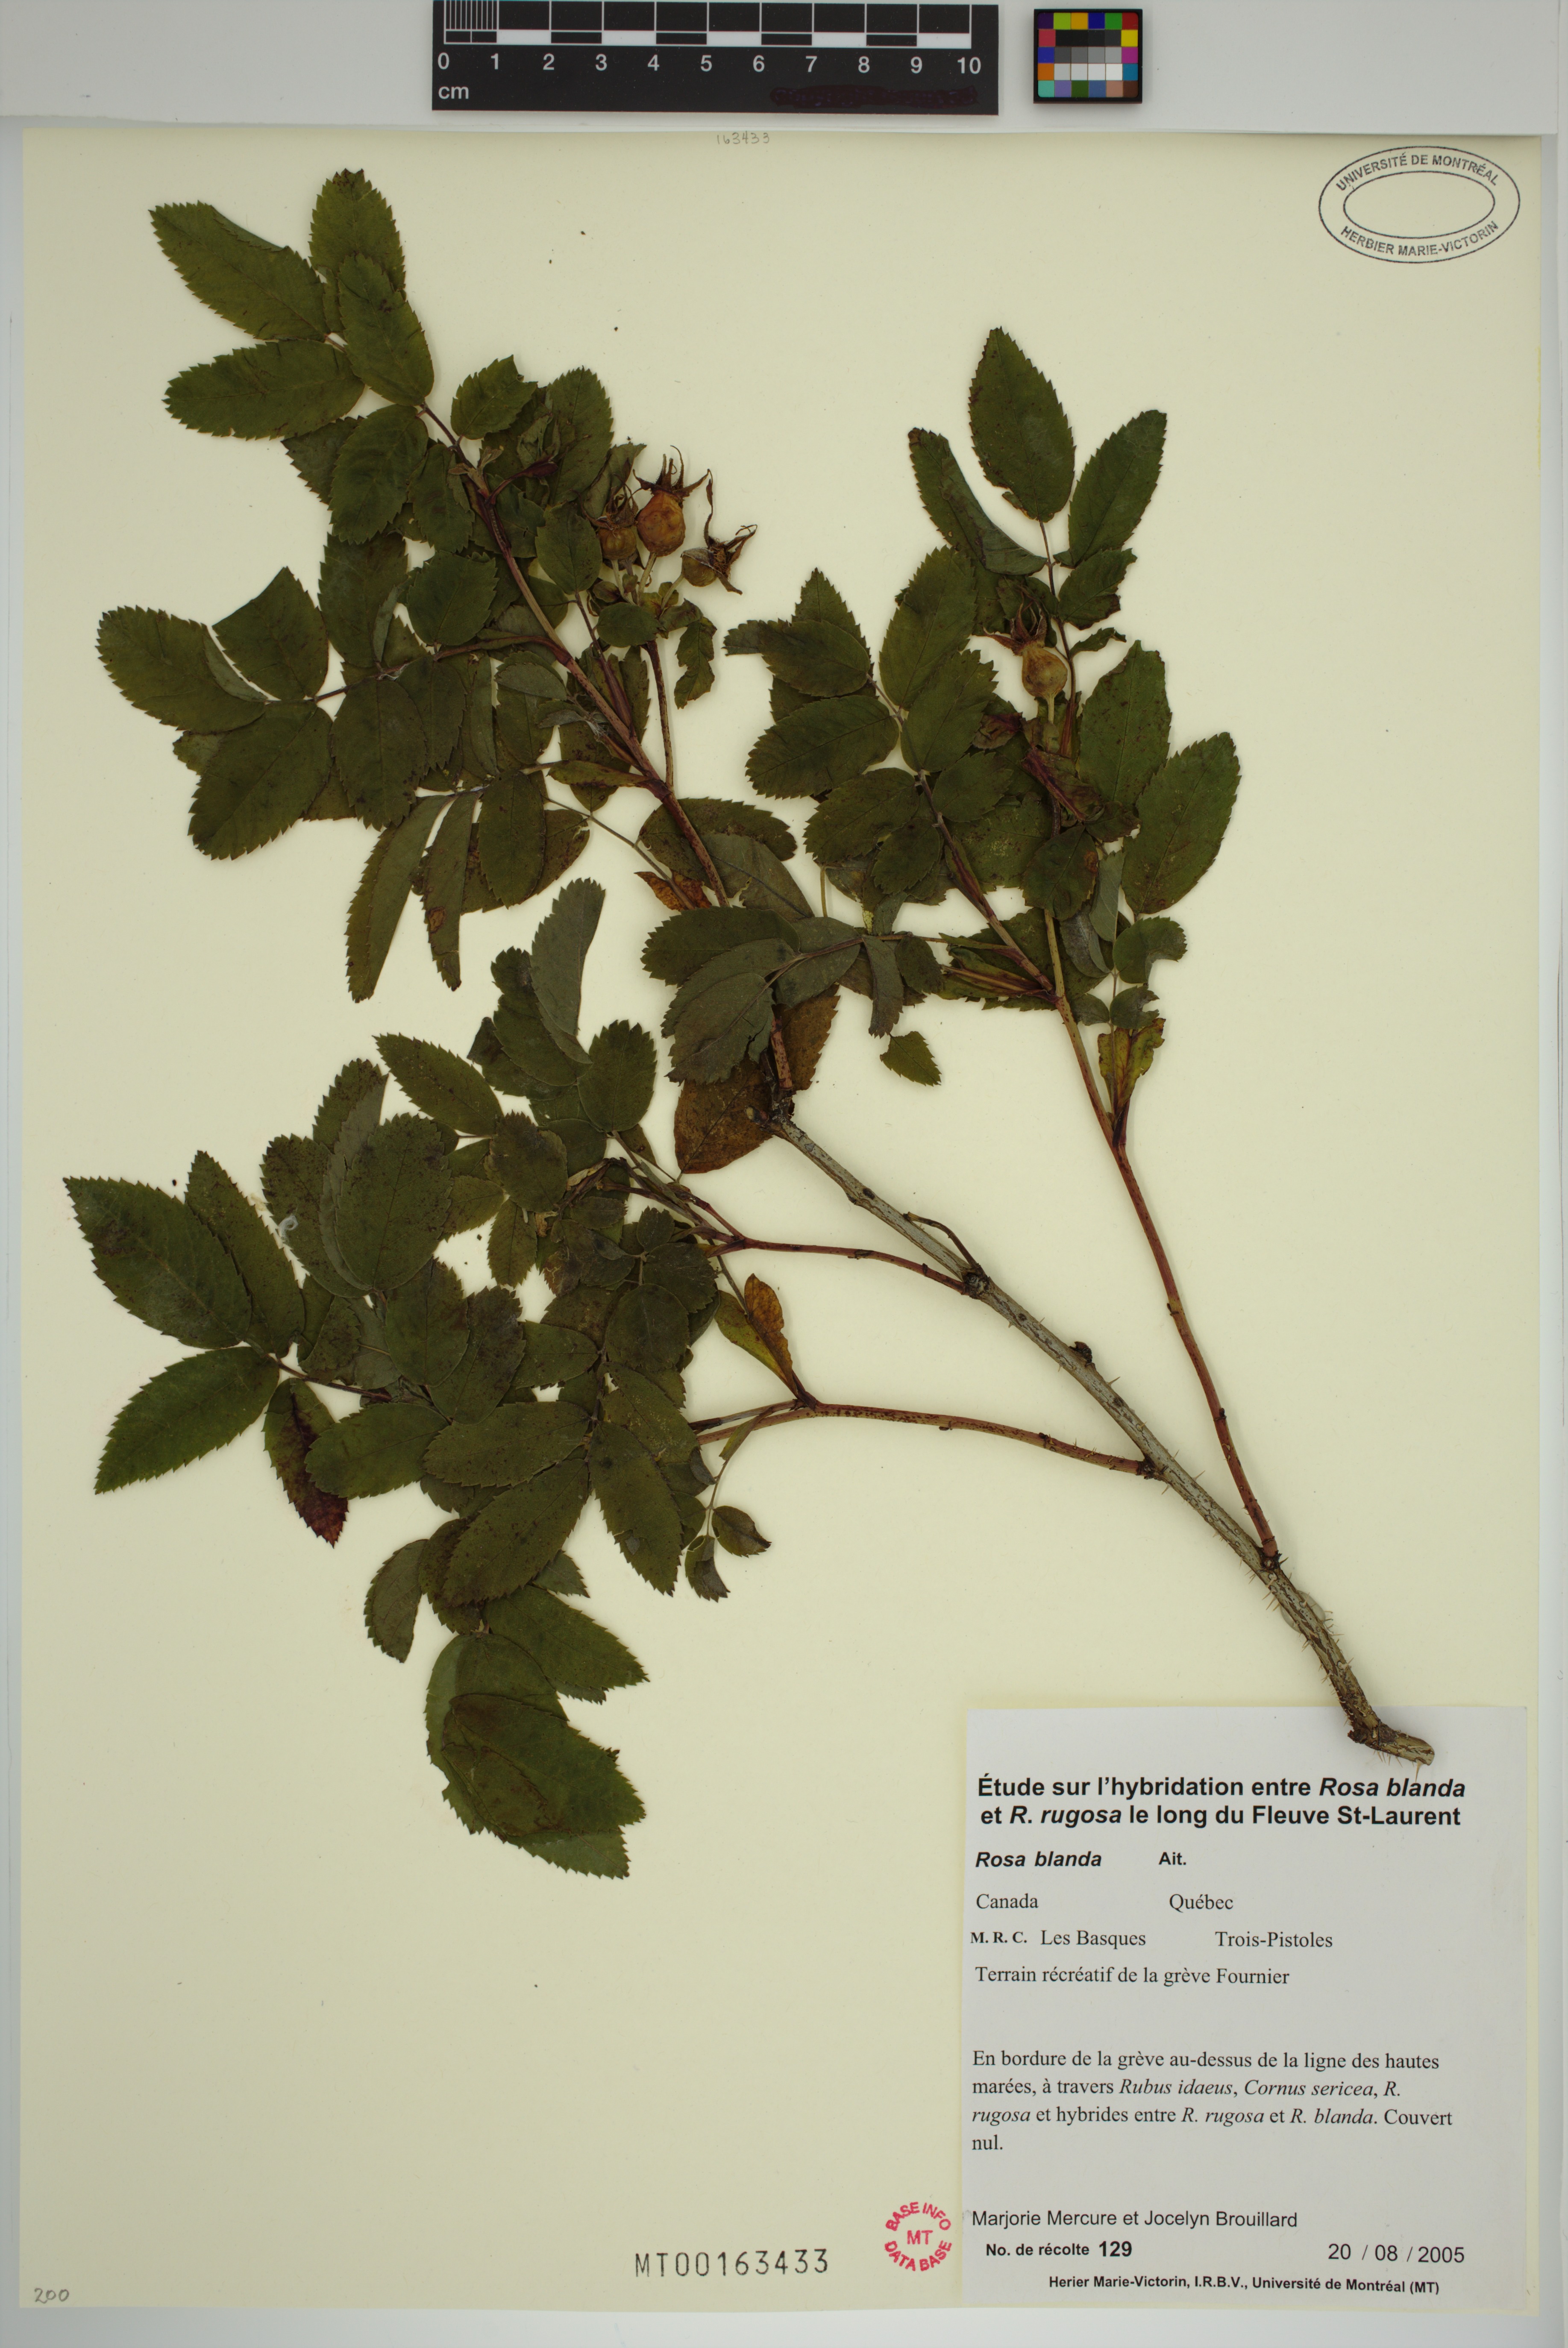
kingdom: Plantae
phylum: Tracheophyta
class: Magnoliopsida
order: Rosales
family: Rosaceae
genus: Rosa
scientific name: Rosa blanda
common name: Smooth rose
